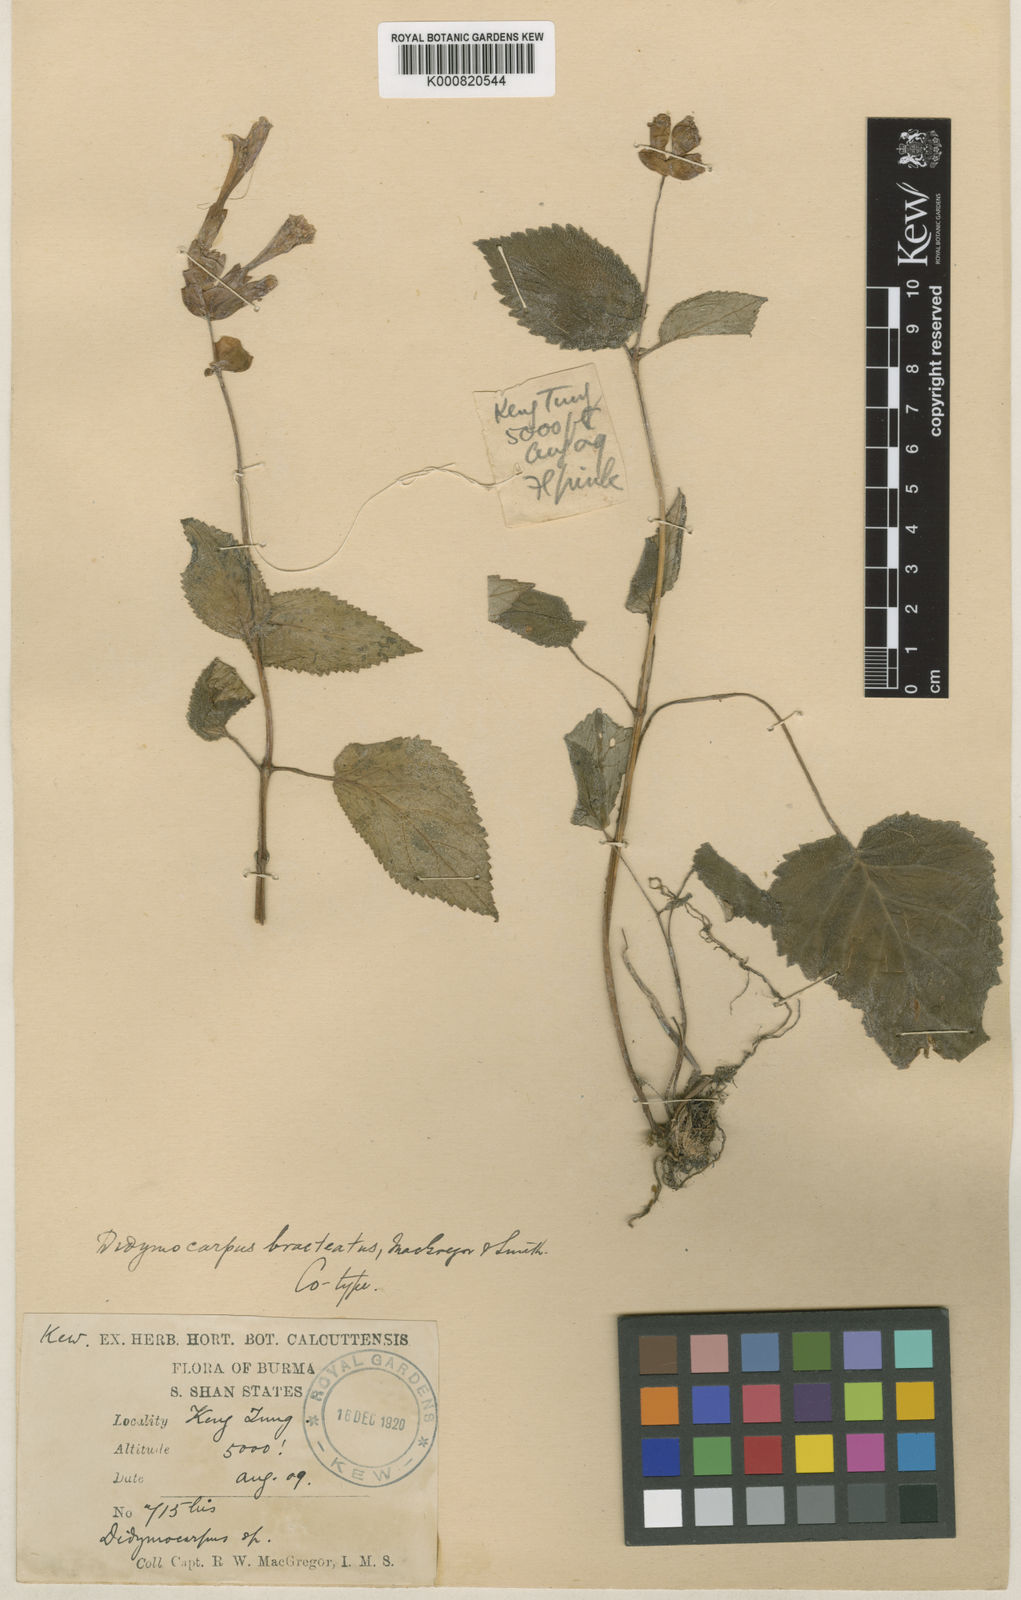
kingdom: Plantae
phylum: Tracheophyta
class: Magnoliopsida
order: Lamiales
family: Gesneriaceae
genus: Didymocarpus
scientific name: Didymocarpus bracteatus
